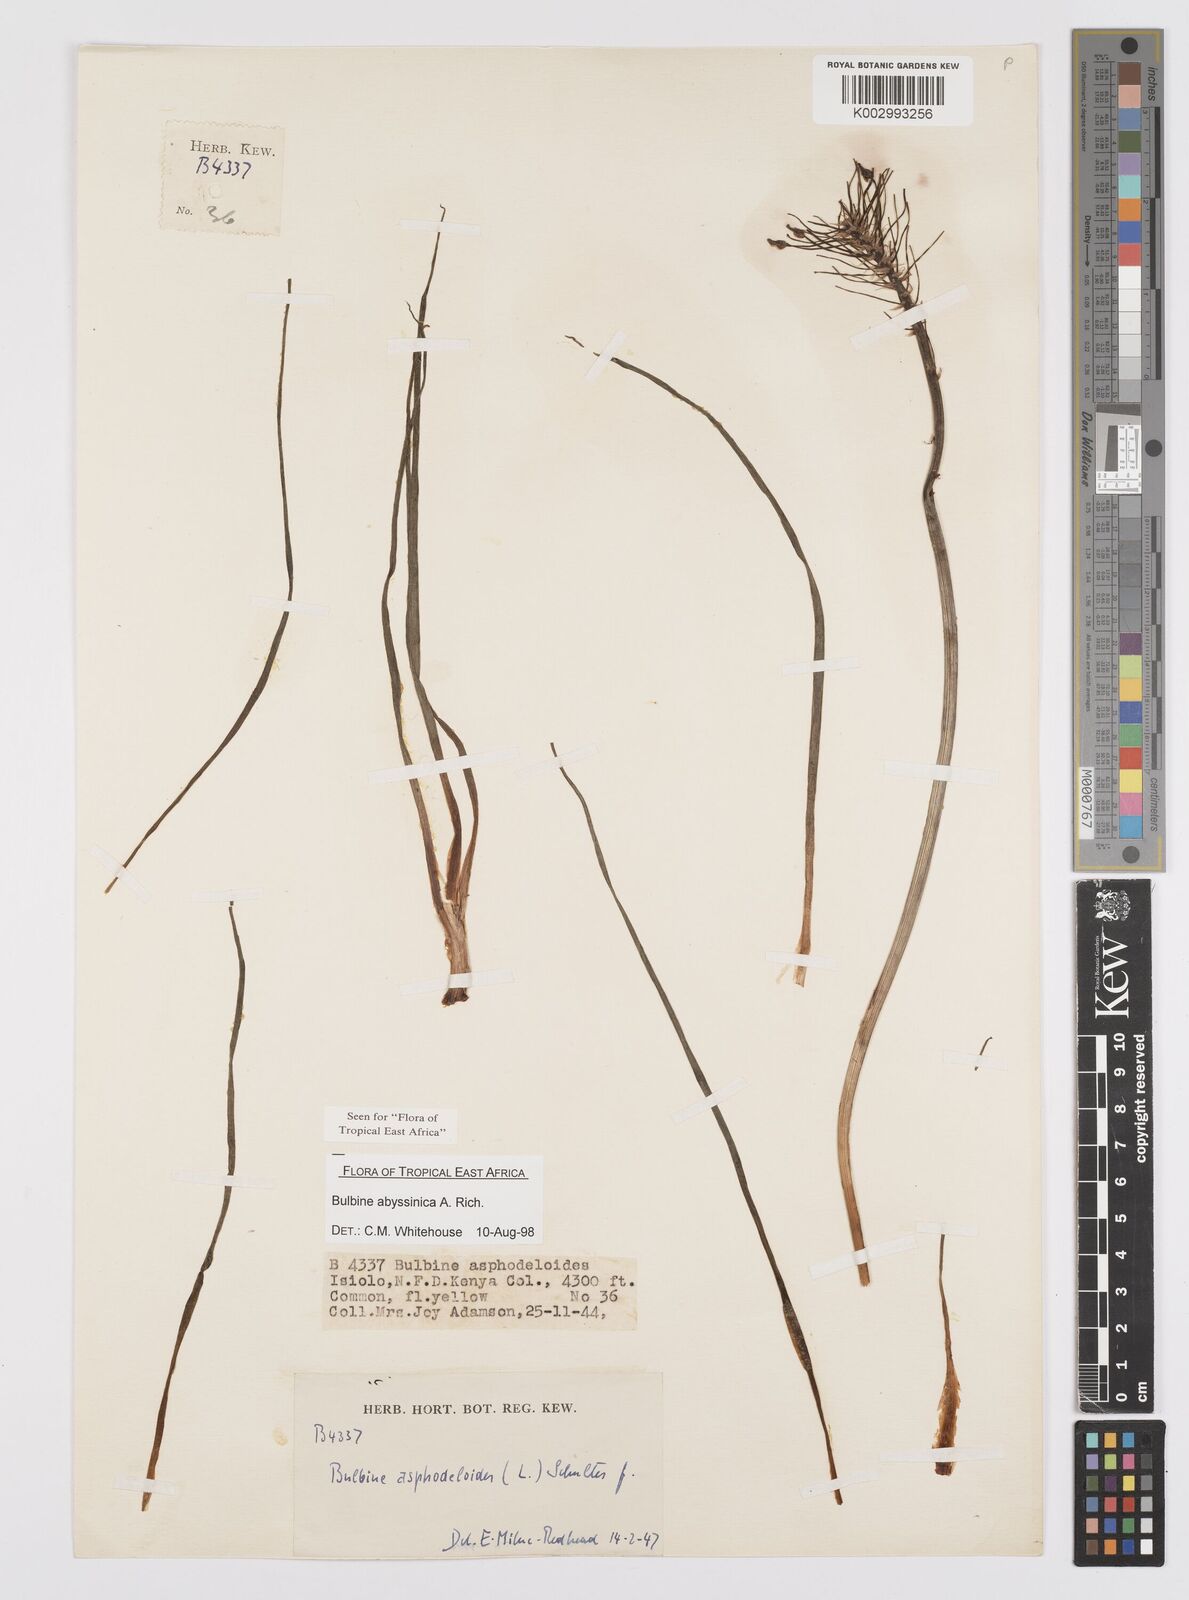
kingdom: Plantae
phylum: Tracheophyta
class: Liliopsida
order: Asparagales
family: Asphodelaceae
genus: Bulbine
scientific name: Bulbine abyssinica
